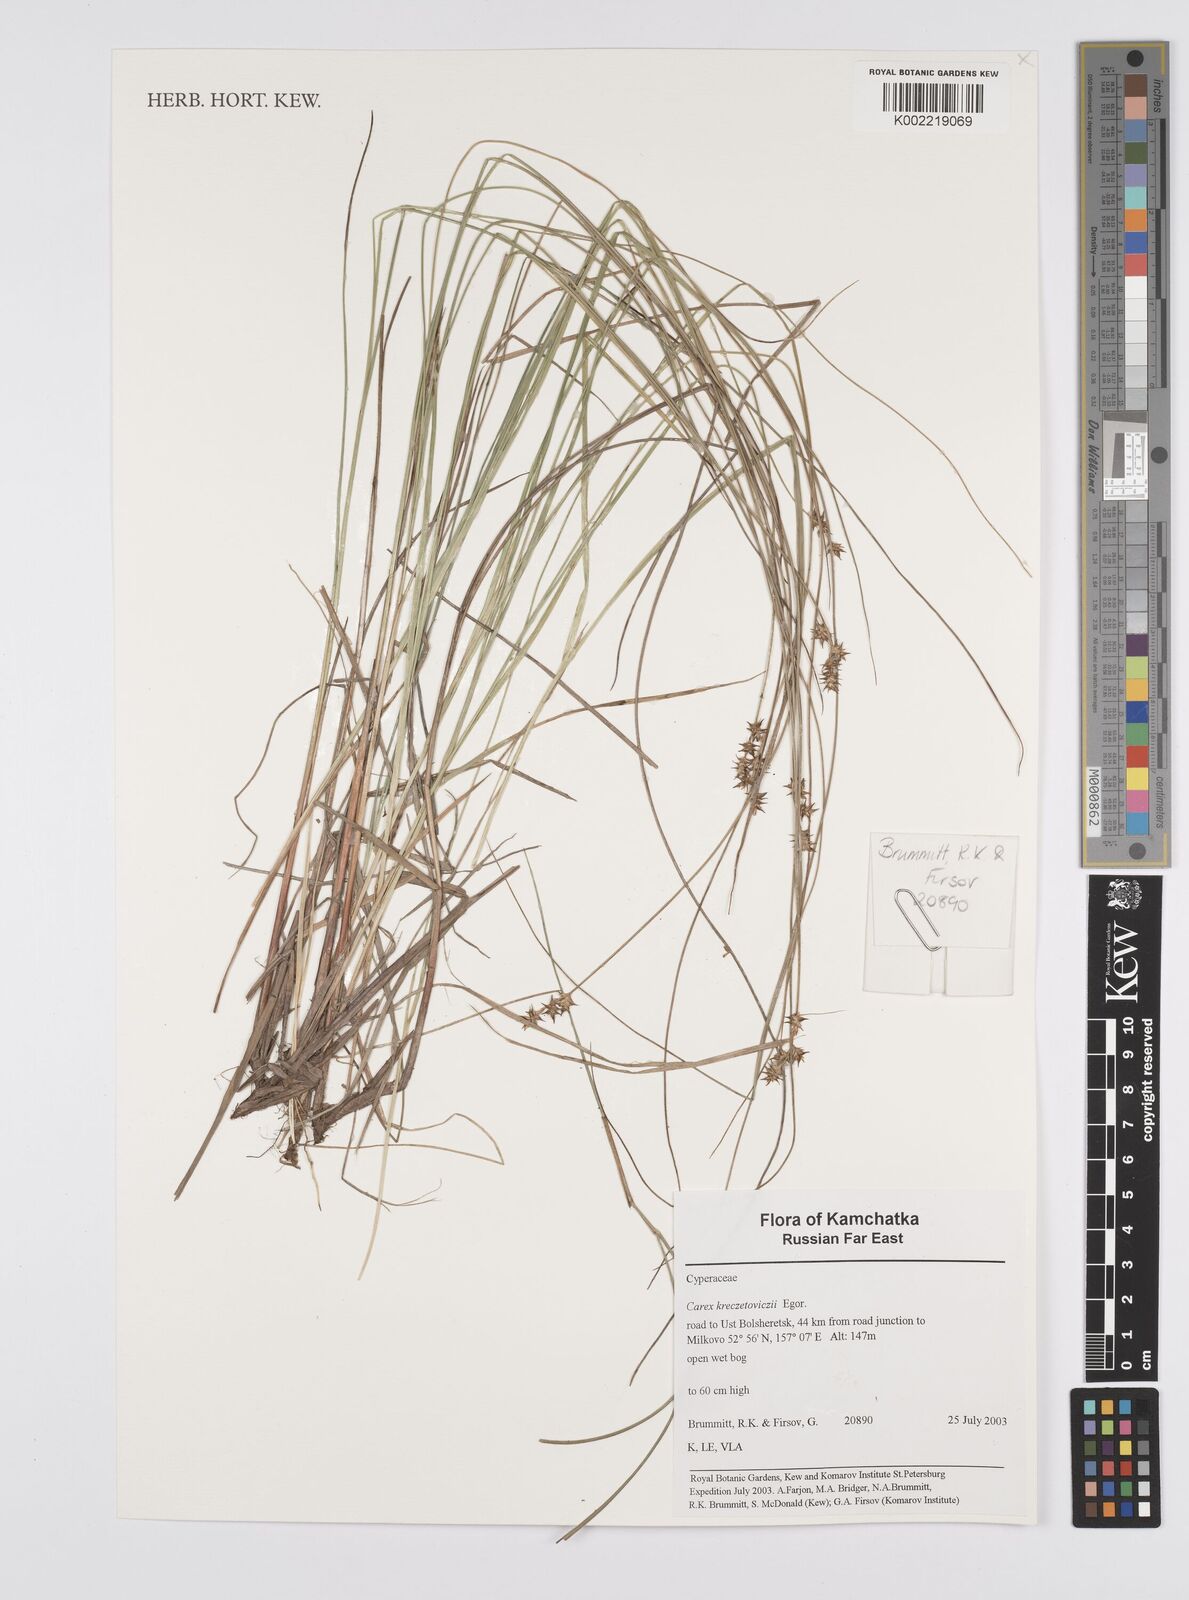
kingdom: Plantae
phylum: Tracheophyta
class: Liliopsida
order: Poales
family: Cyperaceae
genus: Carex
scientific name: Carex kreczetoviczii
